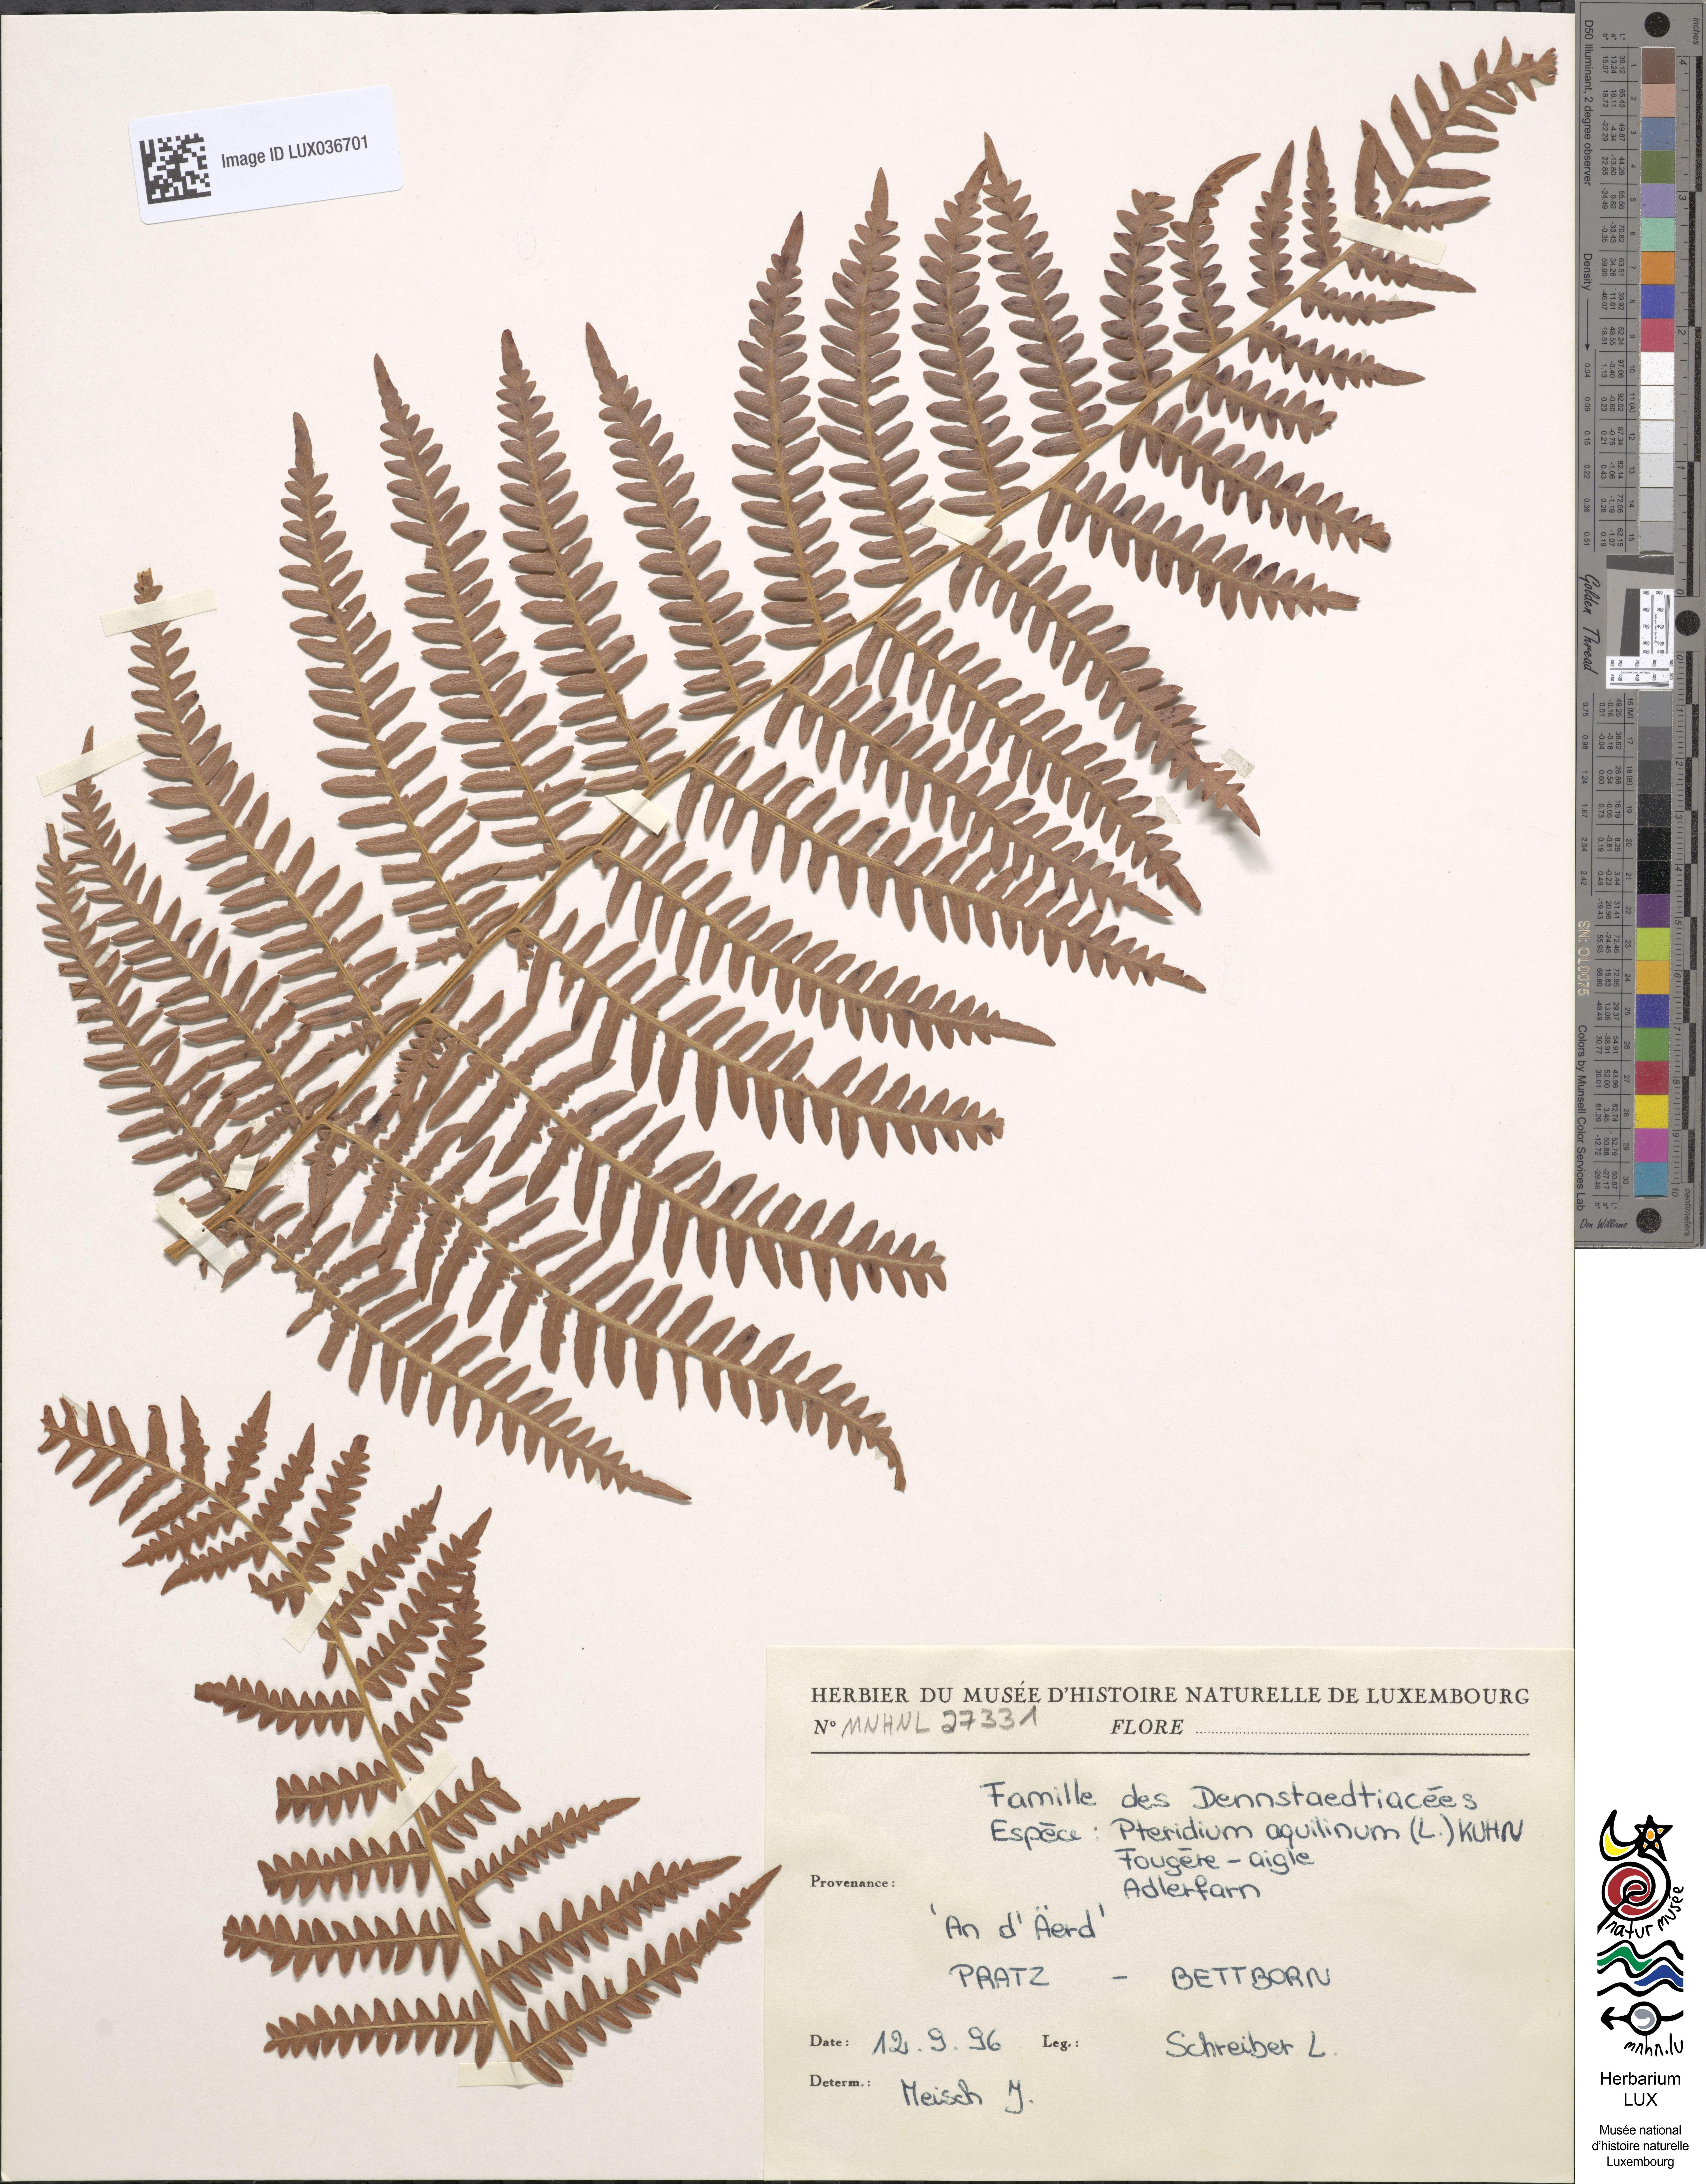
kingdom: Plantae
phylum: Tracheophyta
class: Polypodiopsida
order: Polypodiales
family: Dennstaedtiaceae
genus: Pteridium
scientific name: Pteridium aquilinum
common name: Bracken
